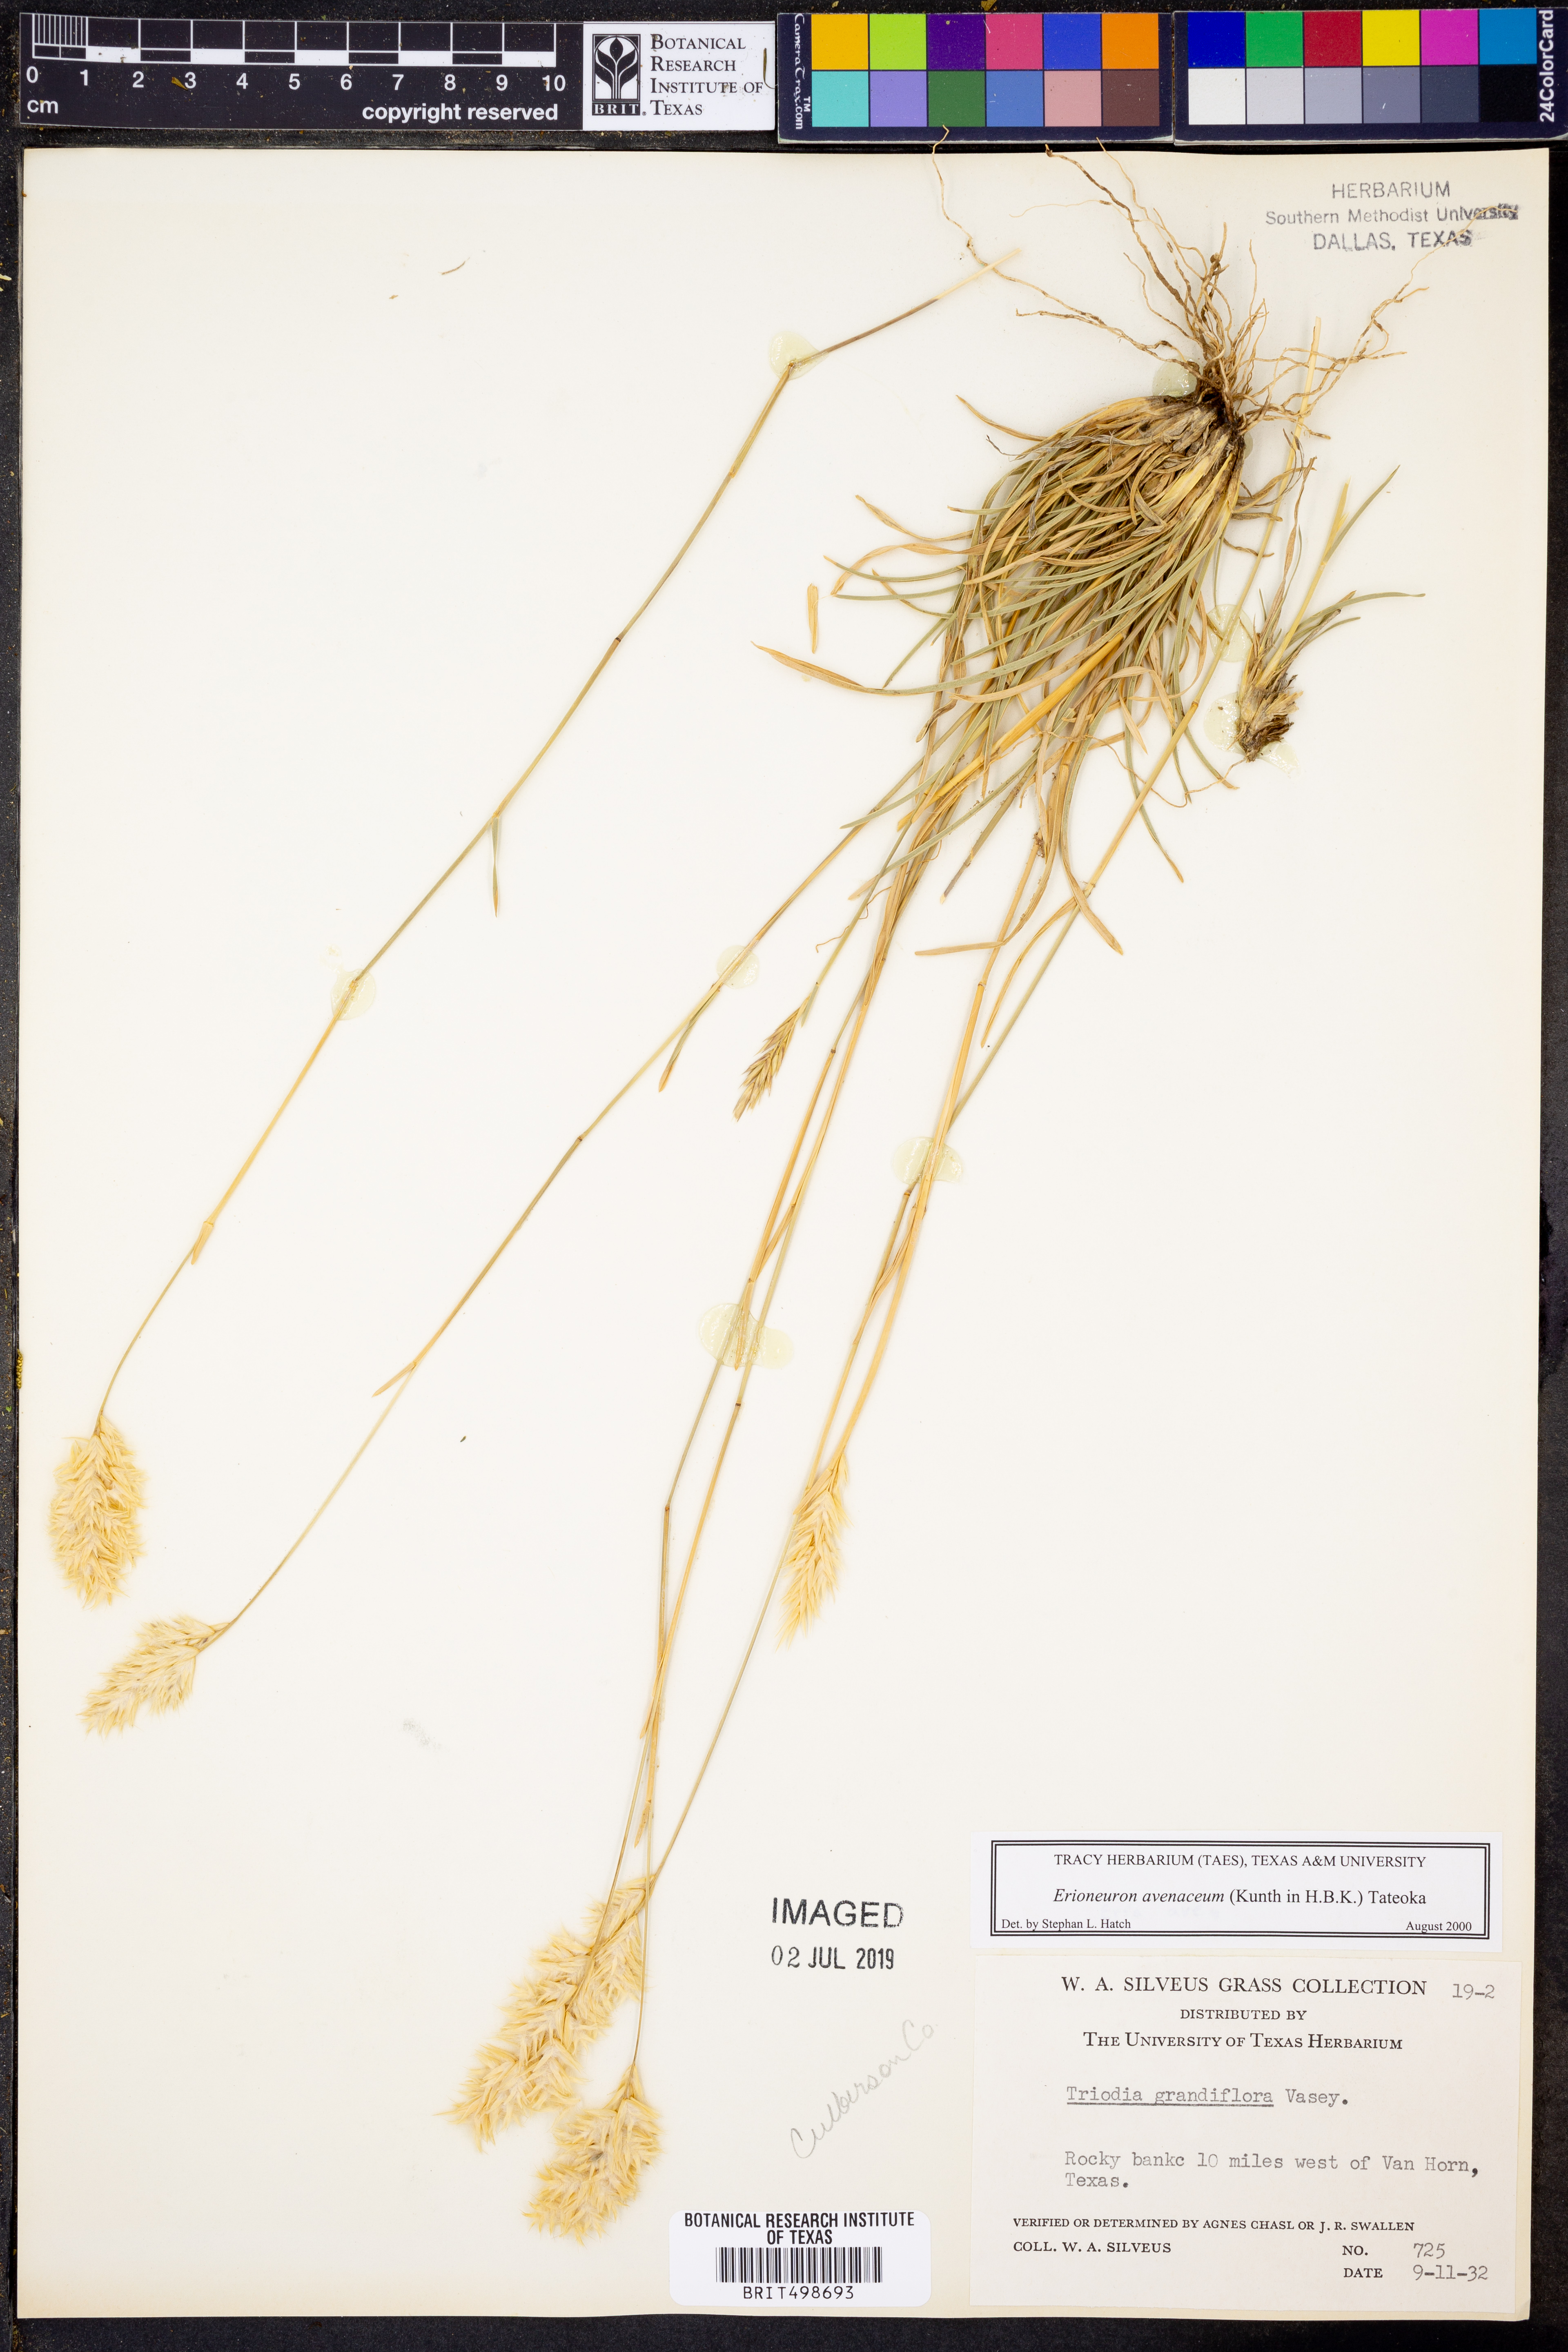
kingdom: Plantae
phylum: Tracheophyta
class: Liliopsida
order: Poales
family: Poaceae
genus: Erioneuron
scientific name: Erioneuron avenaceum
